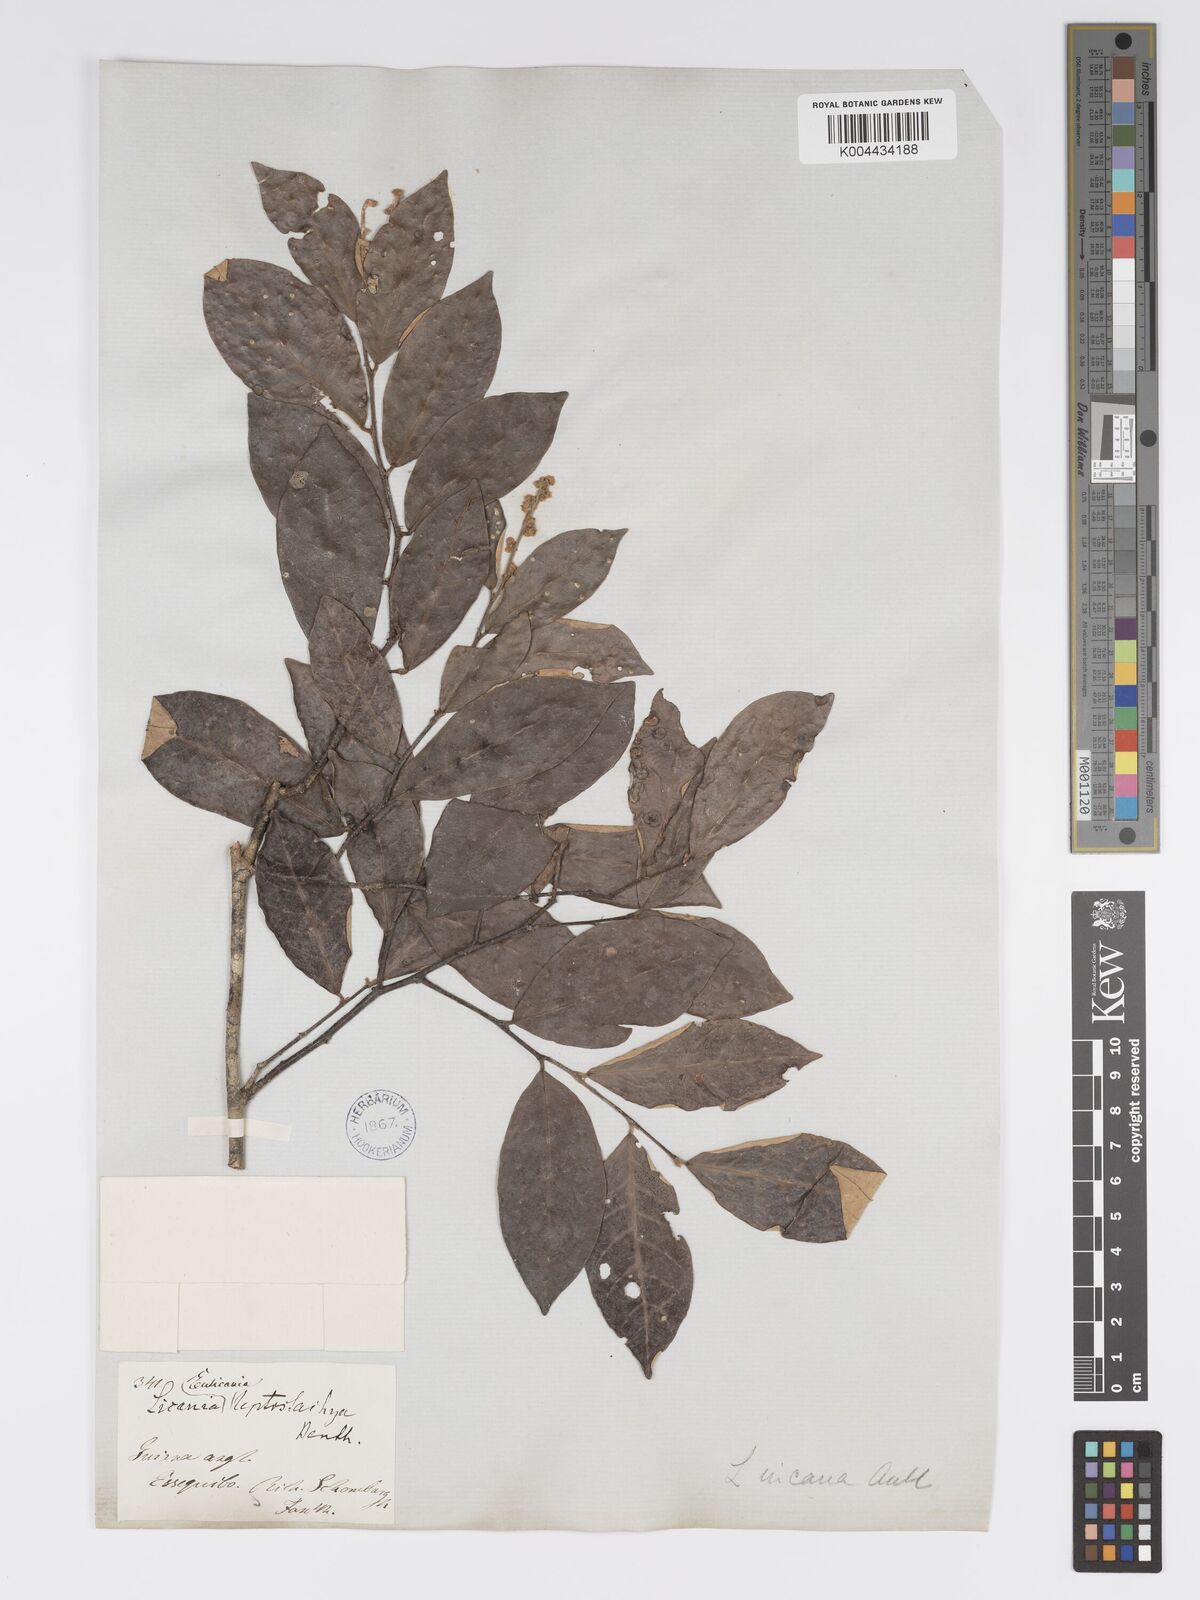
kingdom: Plantae
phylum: Tracheophyta
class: Magnoliopsida
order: Malpighiales
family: Chrysobalanaceae
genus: Licania
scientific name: Licania leptostachya
